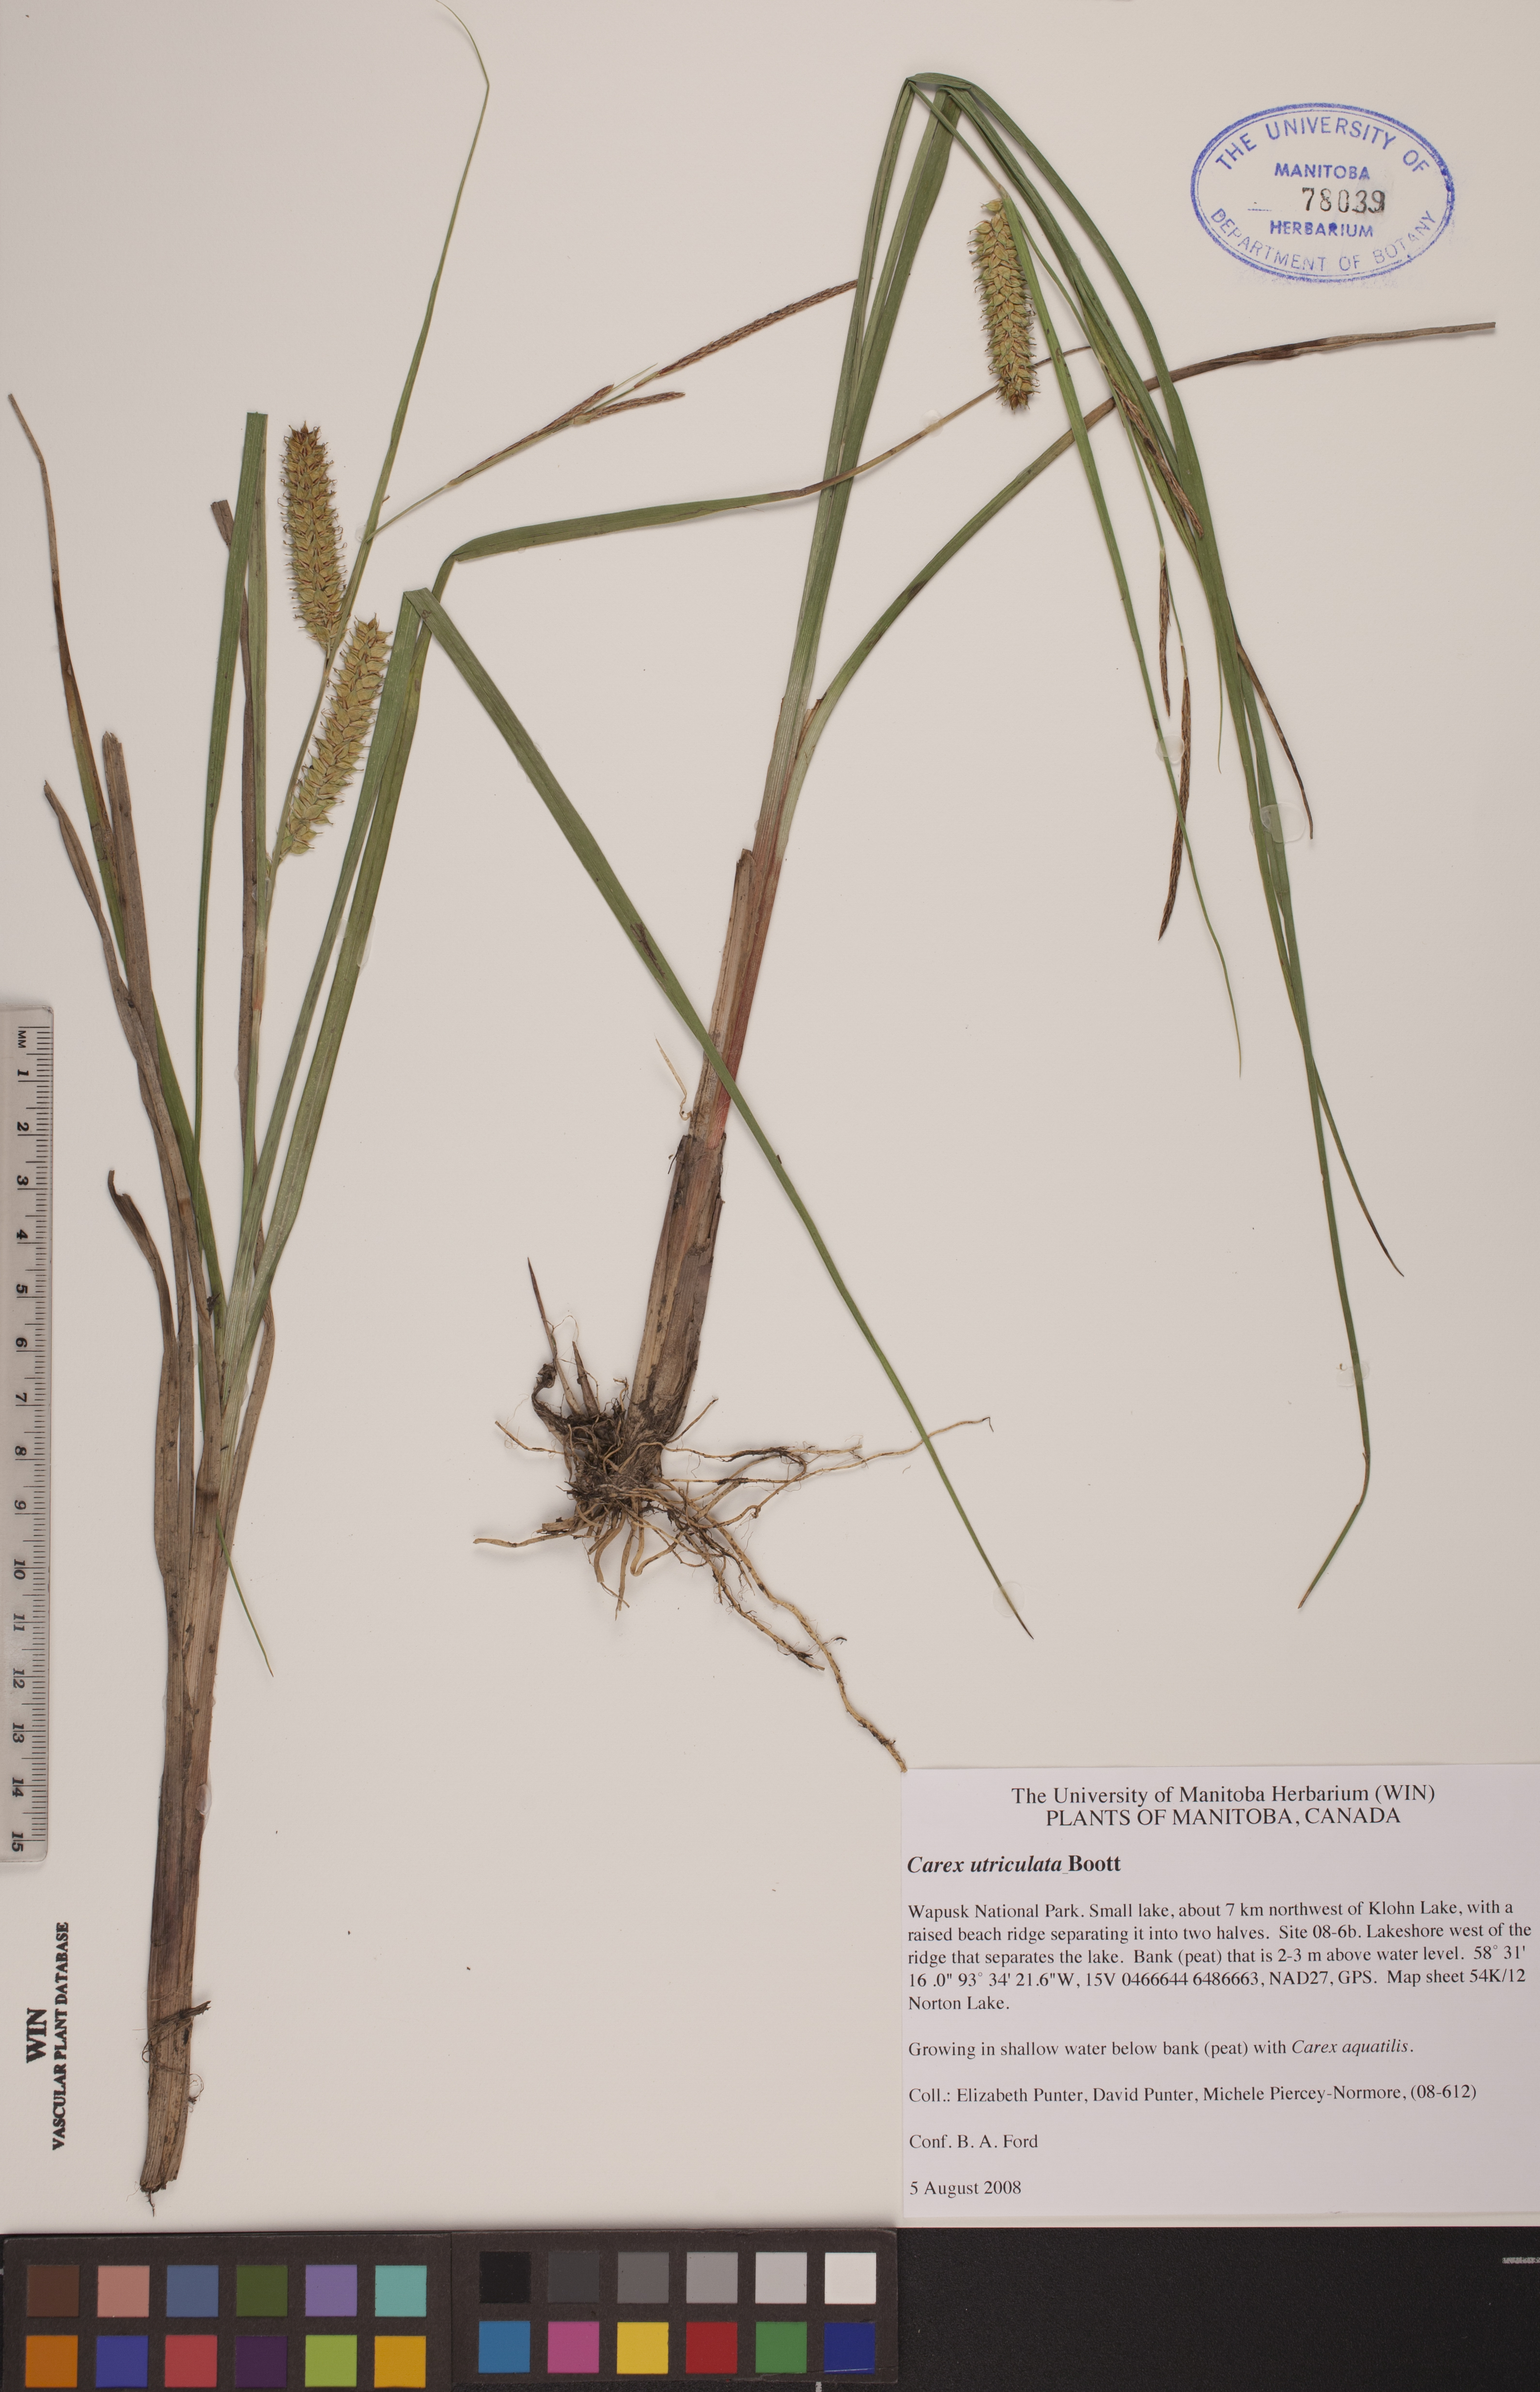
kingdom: Plantae
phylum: Tracheophyta
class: Liliopsida
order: Poales
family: Cyperaceae
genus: Carex
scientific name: Carex utriculata
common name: Beaked sedge
